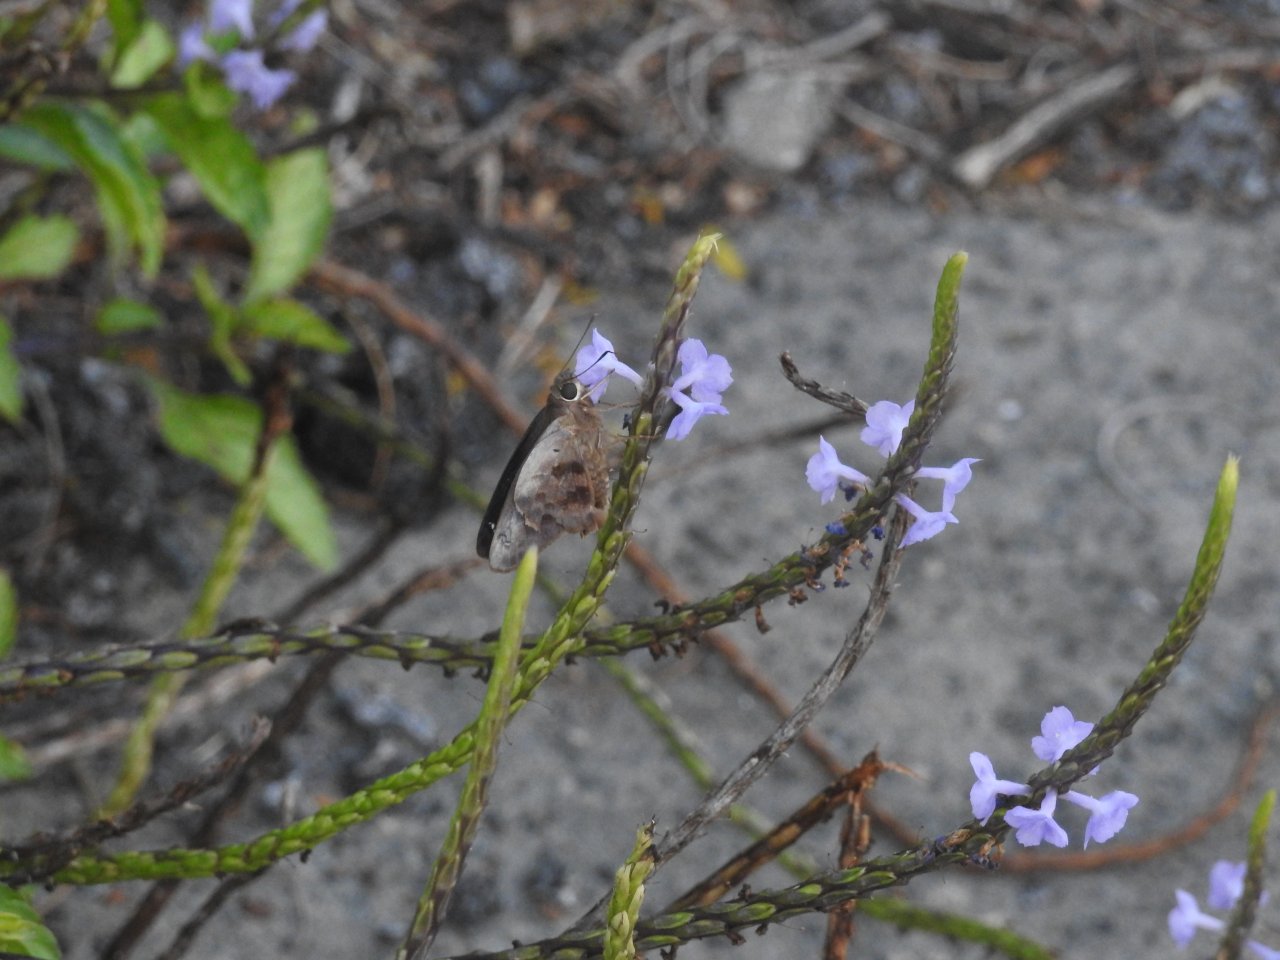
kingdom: Animalia
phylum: Arthropoda
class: Insecta
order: Lepidoptera
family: Hesperiidae
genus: Polygonus
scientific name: Polygonus leo
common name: Hammock Skipper
